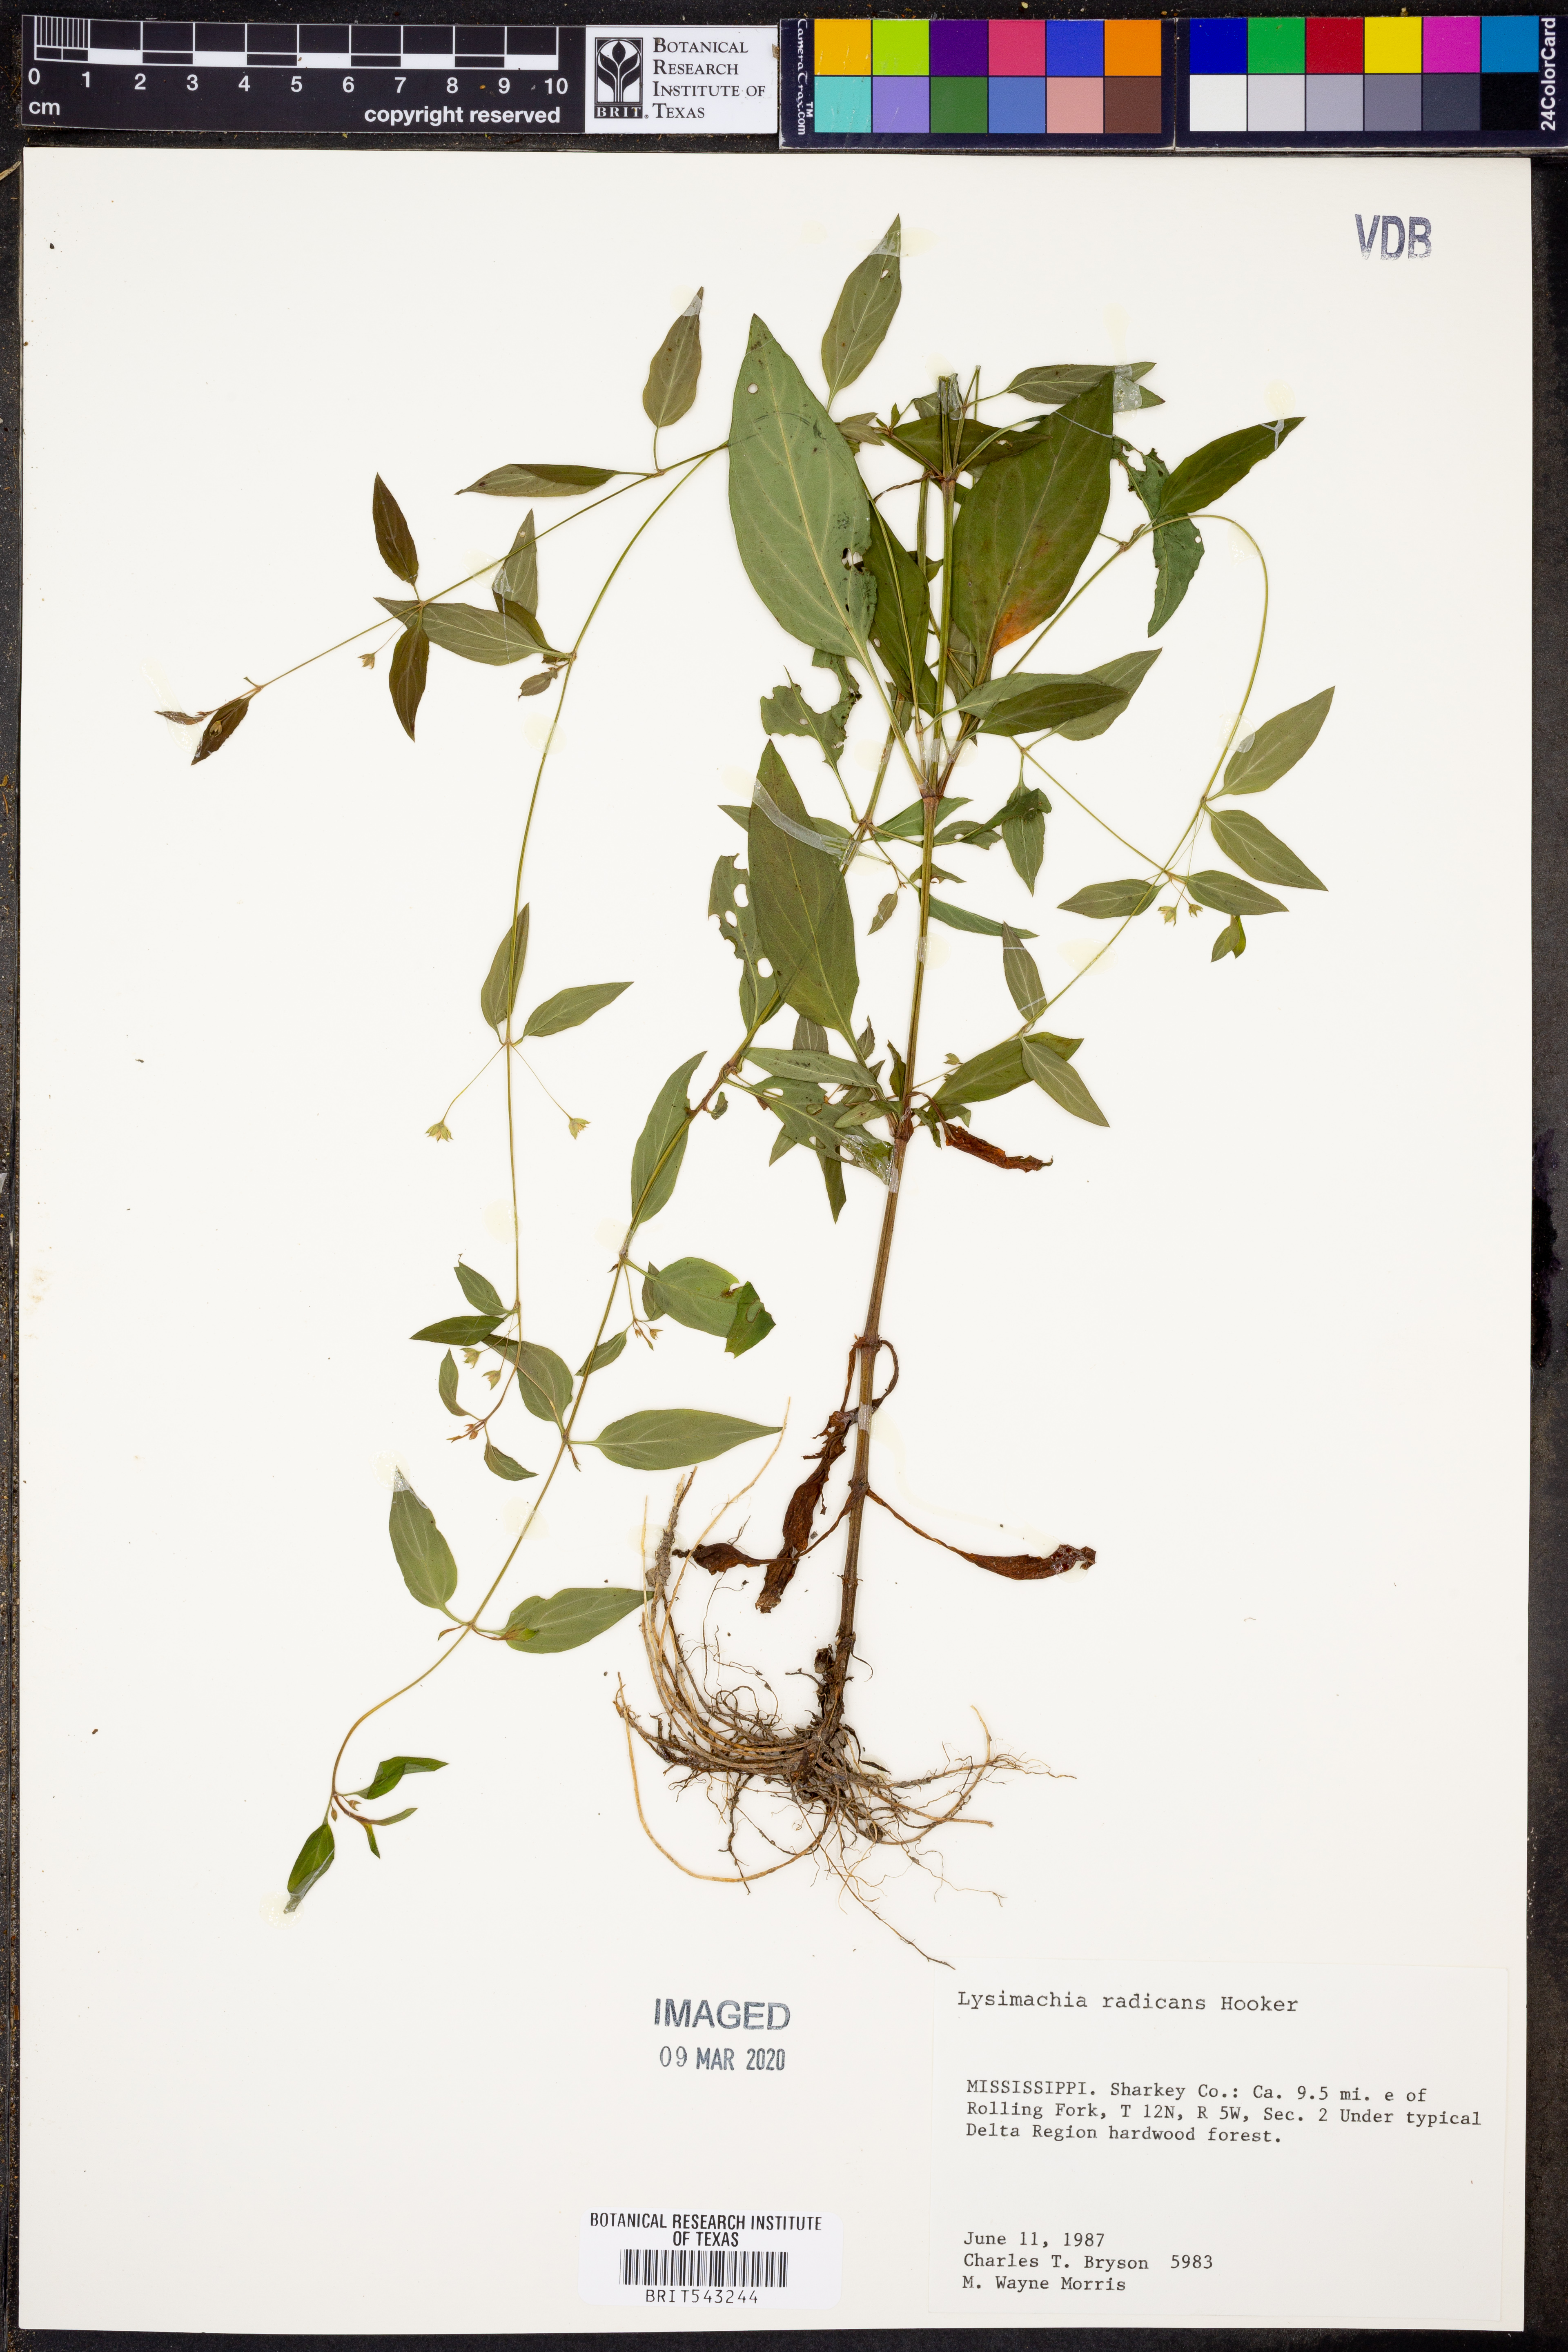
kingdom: Plantae
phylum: Tracheophyta
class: Magnoliopsida
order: Ericales
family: Primulaceae
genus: Lysimachia
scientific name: Lysimachia radicans
